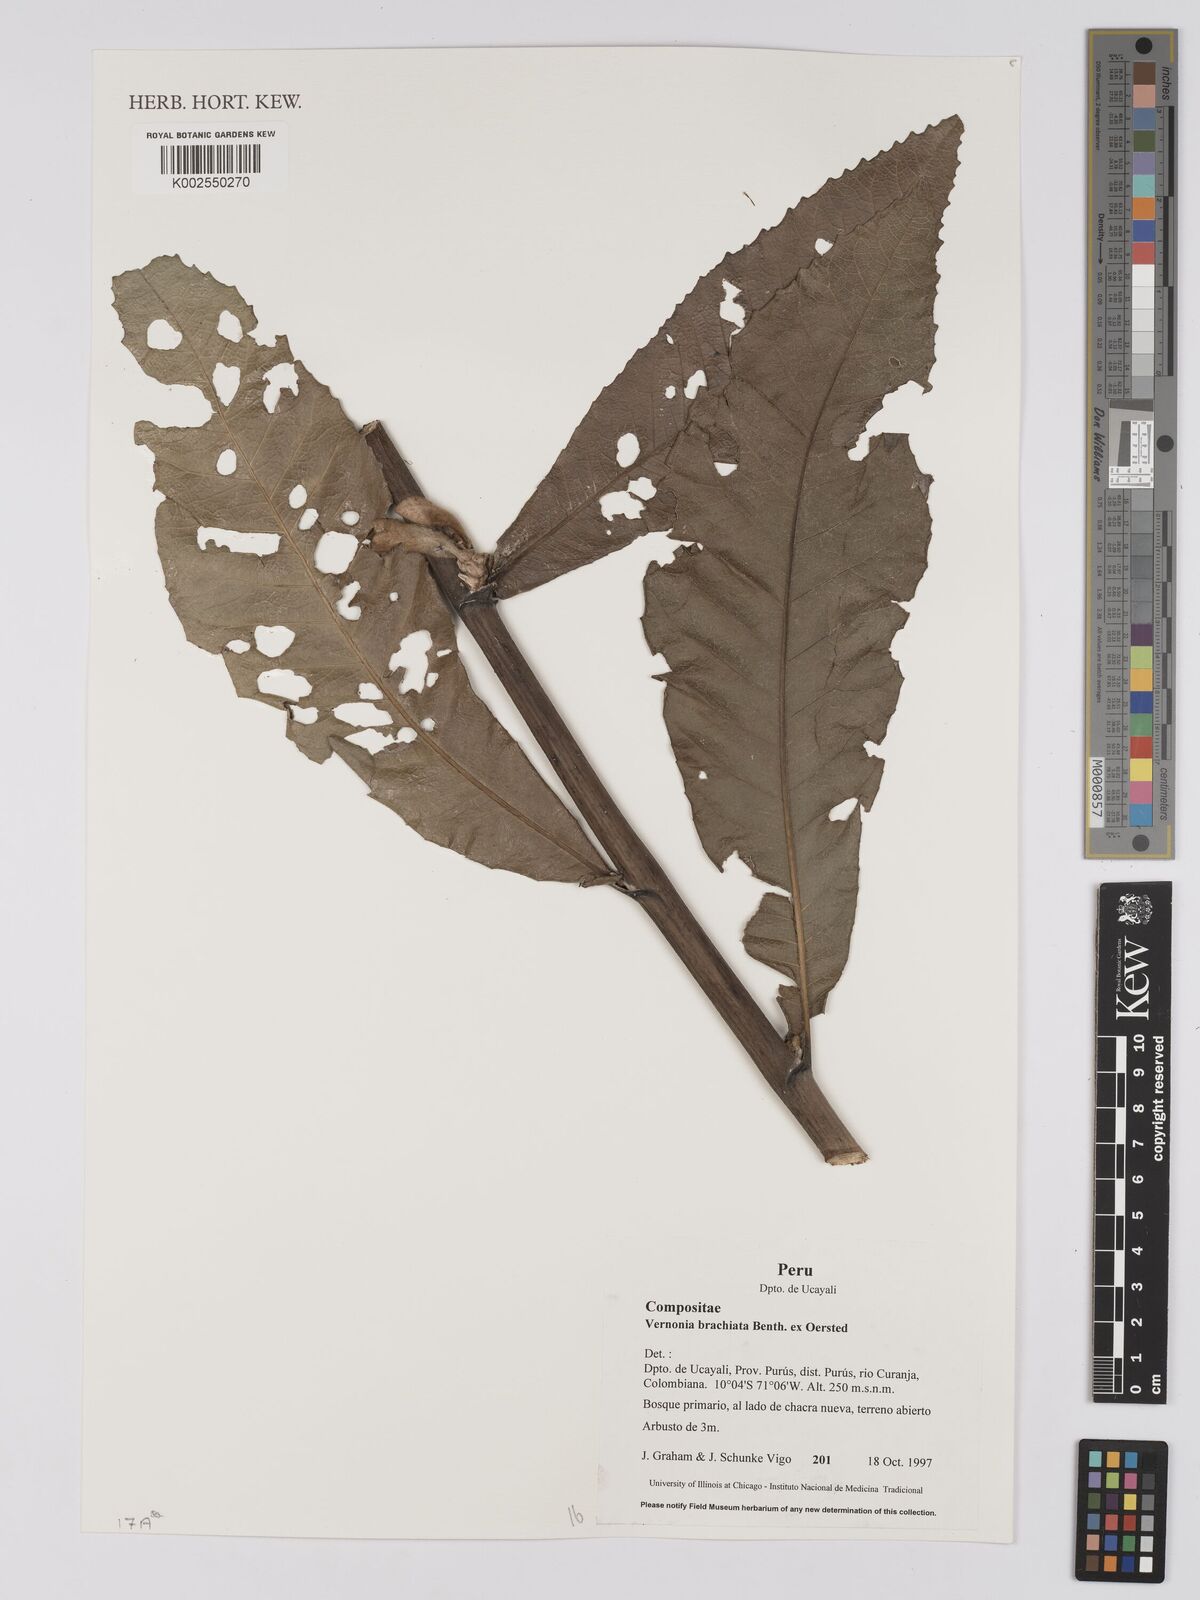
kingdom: Plantae
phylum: Tracheophyta
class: Magnoliopsida
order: Asterales
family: Asteraceae
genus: Eirmocephala
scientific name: Eirmocephala brachiata
